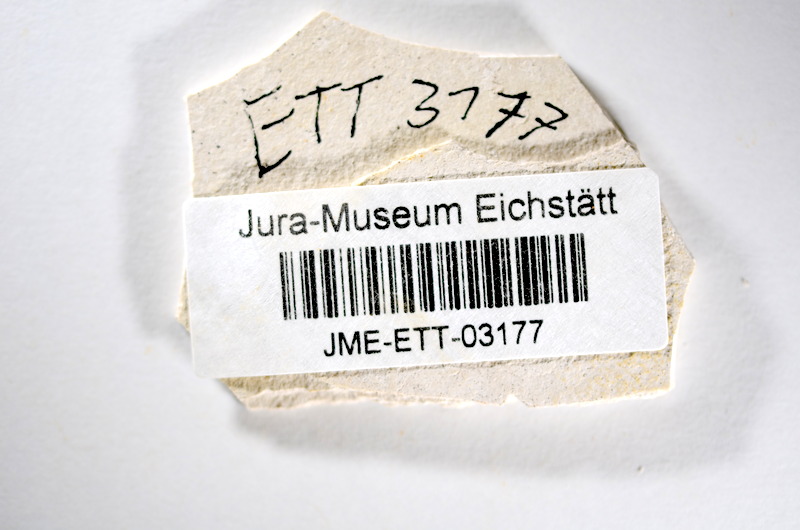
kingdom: Animalia
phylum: Chordata
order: Salmoniformes
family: Orthogonikleithridae
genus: Orthogonikleithrus
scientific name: Orthogonikleithrus hoelli
